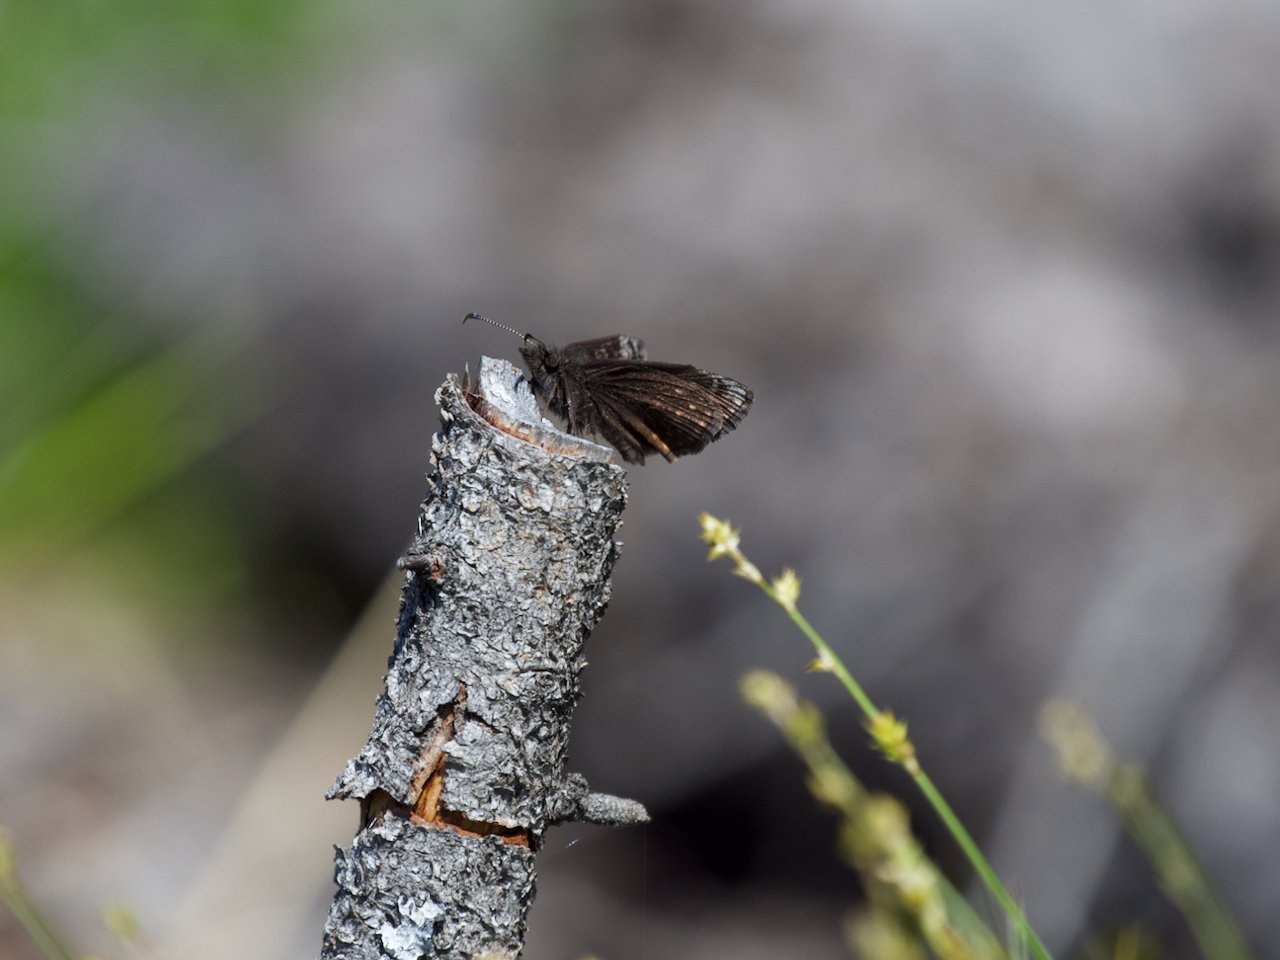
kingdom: Animalia
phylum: Arthropoda
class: Insecta
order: Lepidoptera
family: Hesperiidae
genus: Erynnis
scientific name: Erynnis icelus
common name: Dreamy Duskywing
